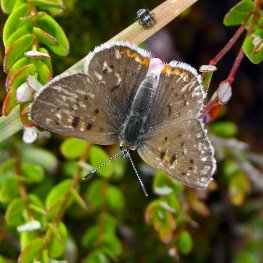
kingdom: Animalia
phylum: Arthropoda
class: Insecta
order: Lepidoptera
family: Sesiidae
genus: Sesia
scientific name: Sesia Lycaena epixanthe
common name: Bog Copper
